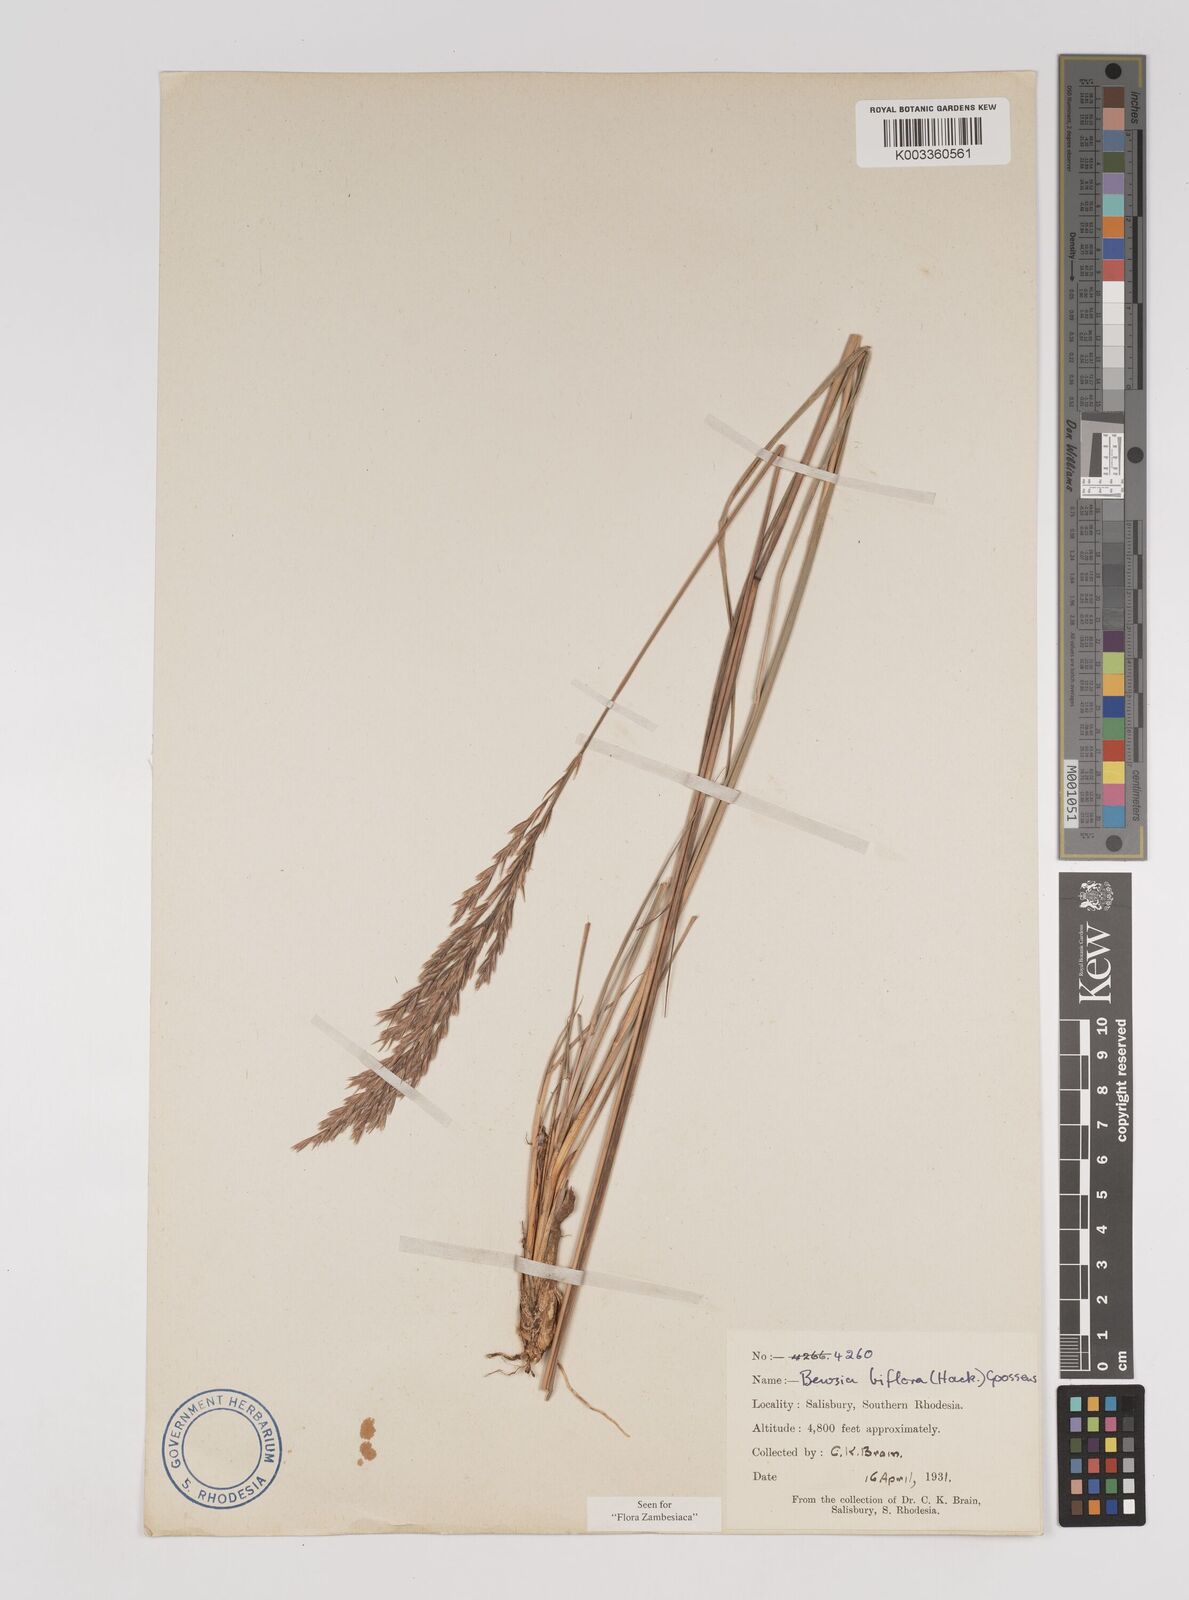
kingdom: Plantae
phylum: Tracheophyta
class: Liliopsida
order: Poales
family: Poaceae
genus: Bewsia
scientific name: Bewsia biflora
